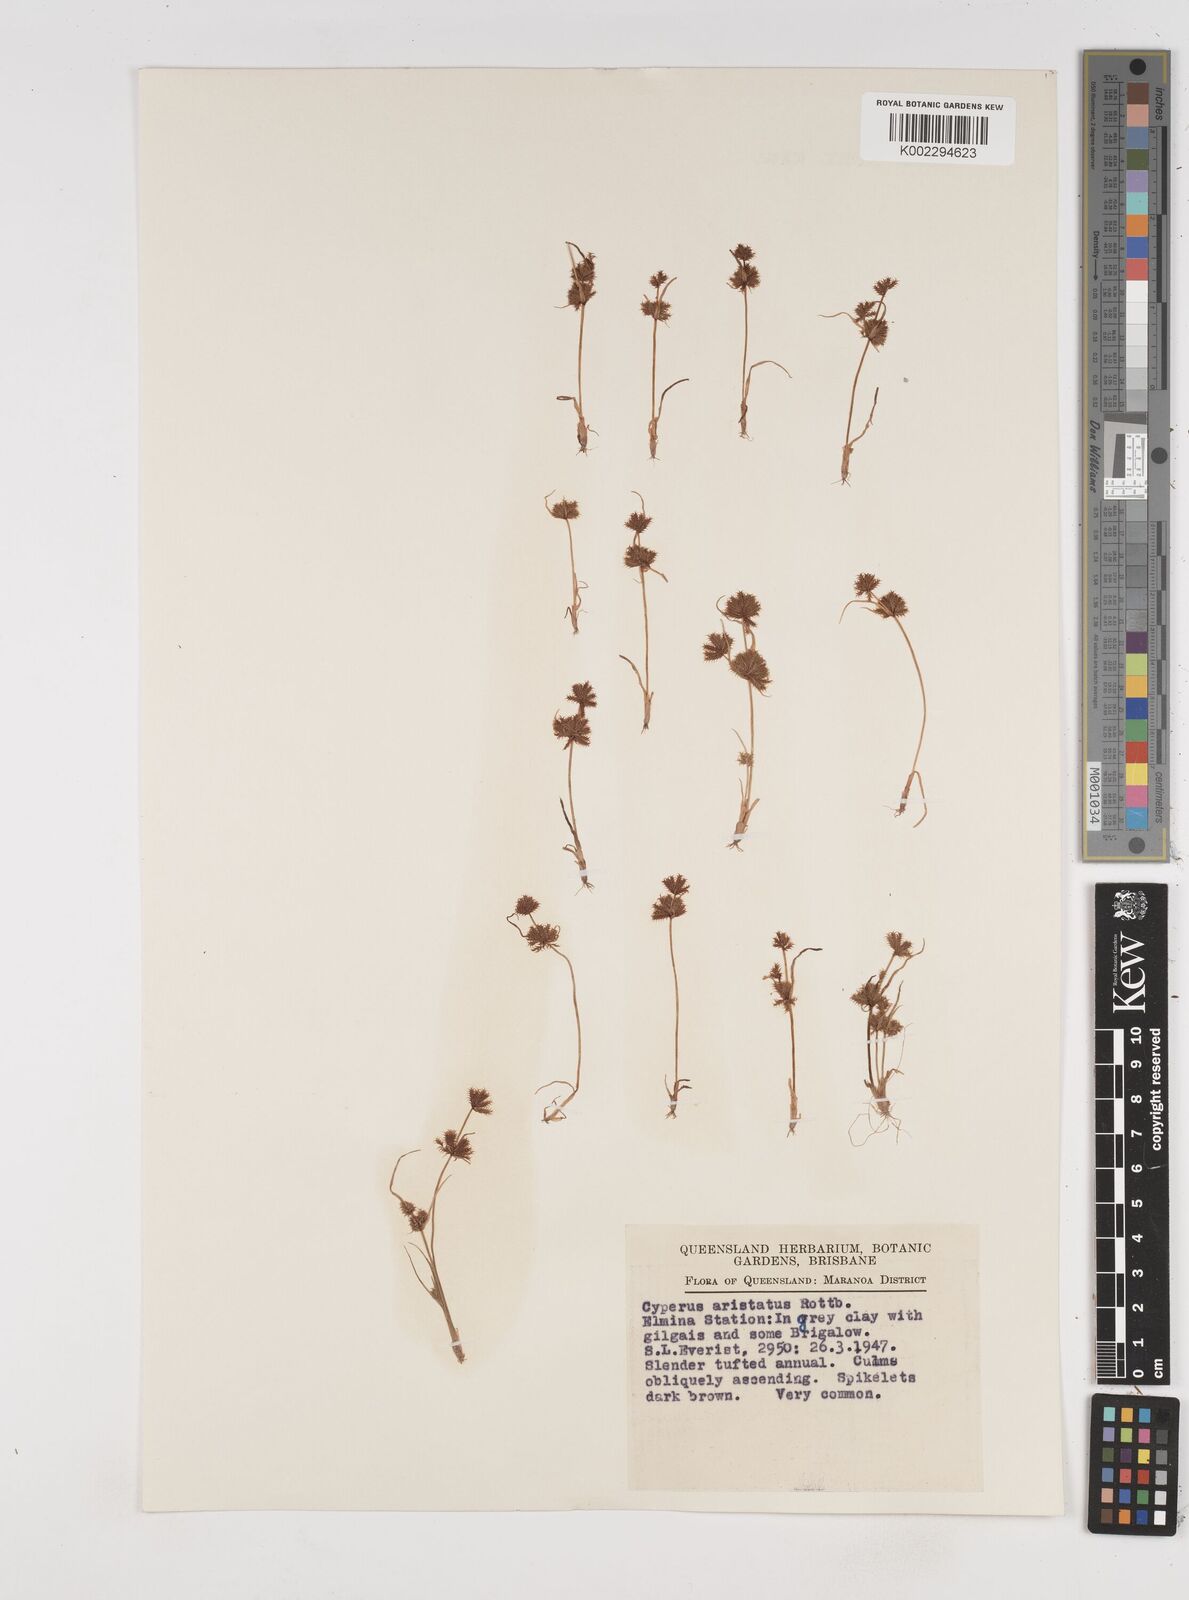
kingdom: Plantae
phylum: Tracheophyta
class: Liliopsida
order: Poales
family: Cyperaceae
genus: Cyperus
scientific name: Cyperus squarrosus
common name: Awned cyperus
